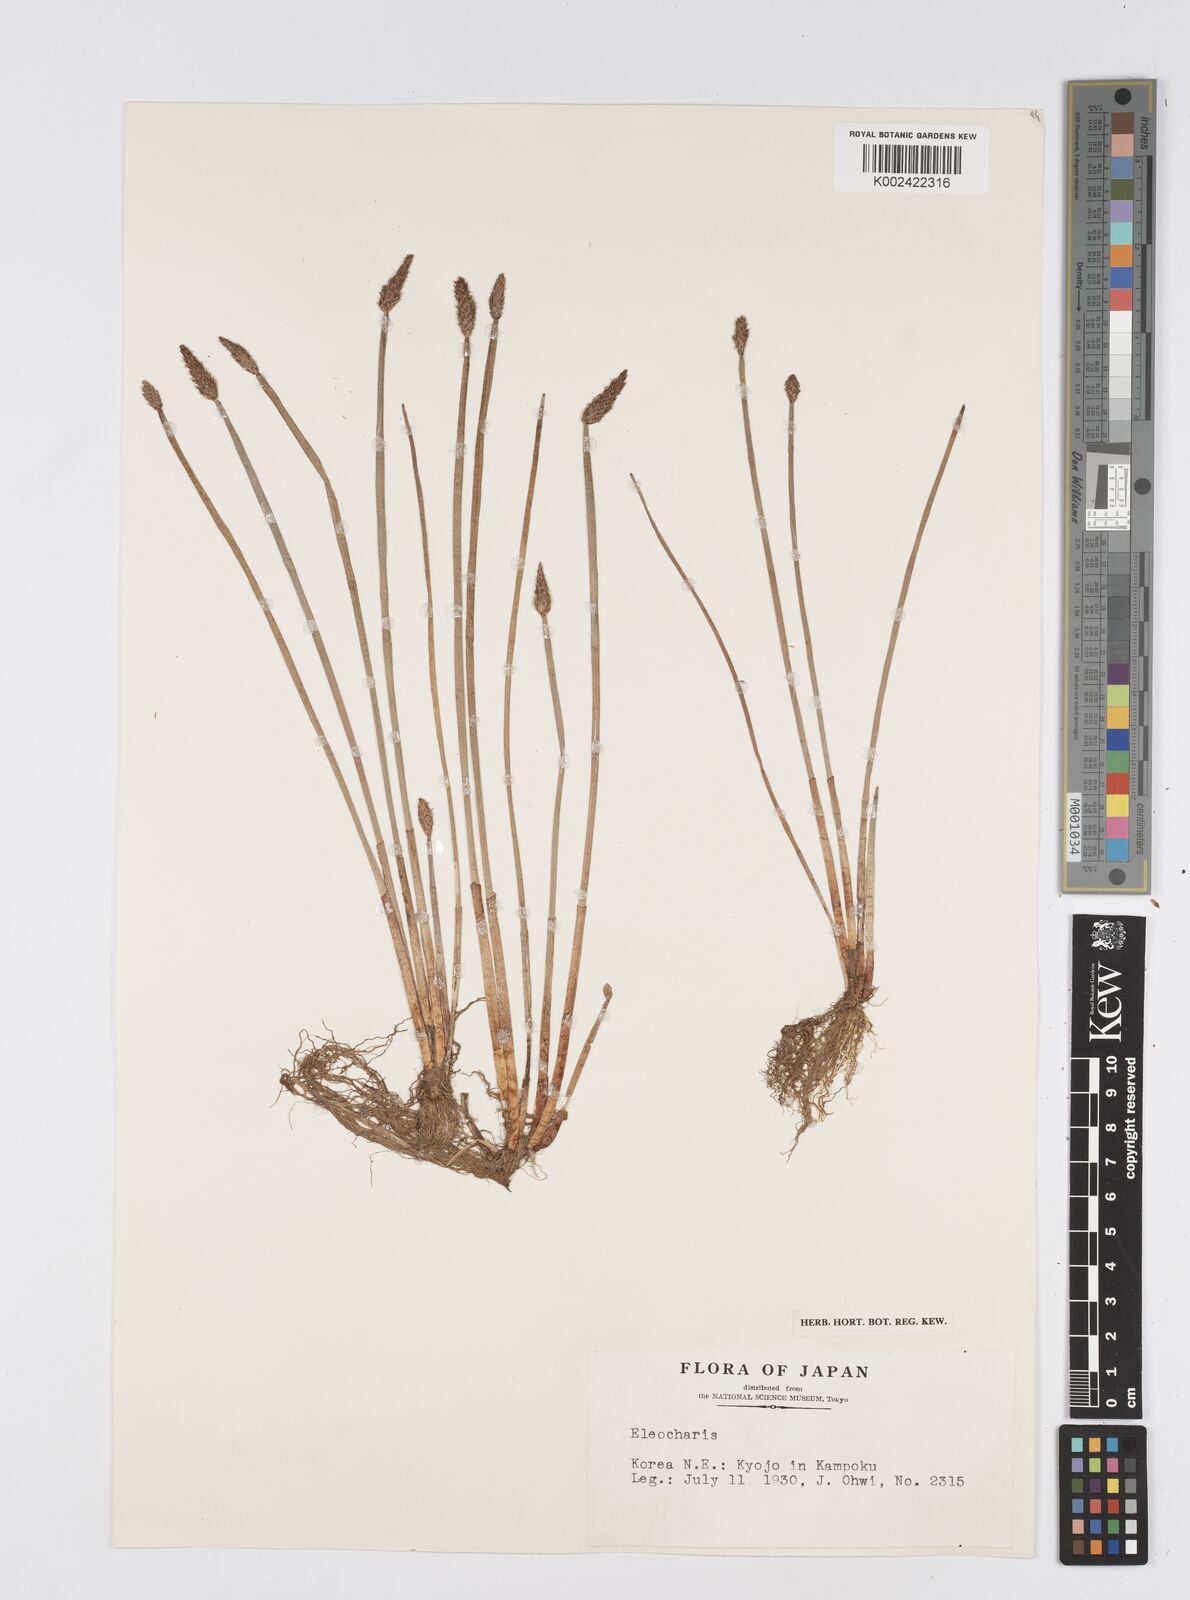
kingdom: Plantae
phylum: Tracheophyta
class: Liliopsida
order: Poales
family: Cyperaceae
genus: Eleocharis
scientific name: Eleocharis
